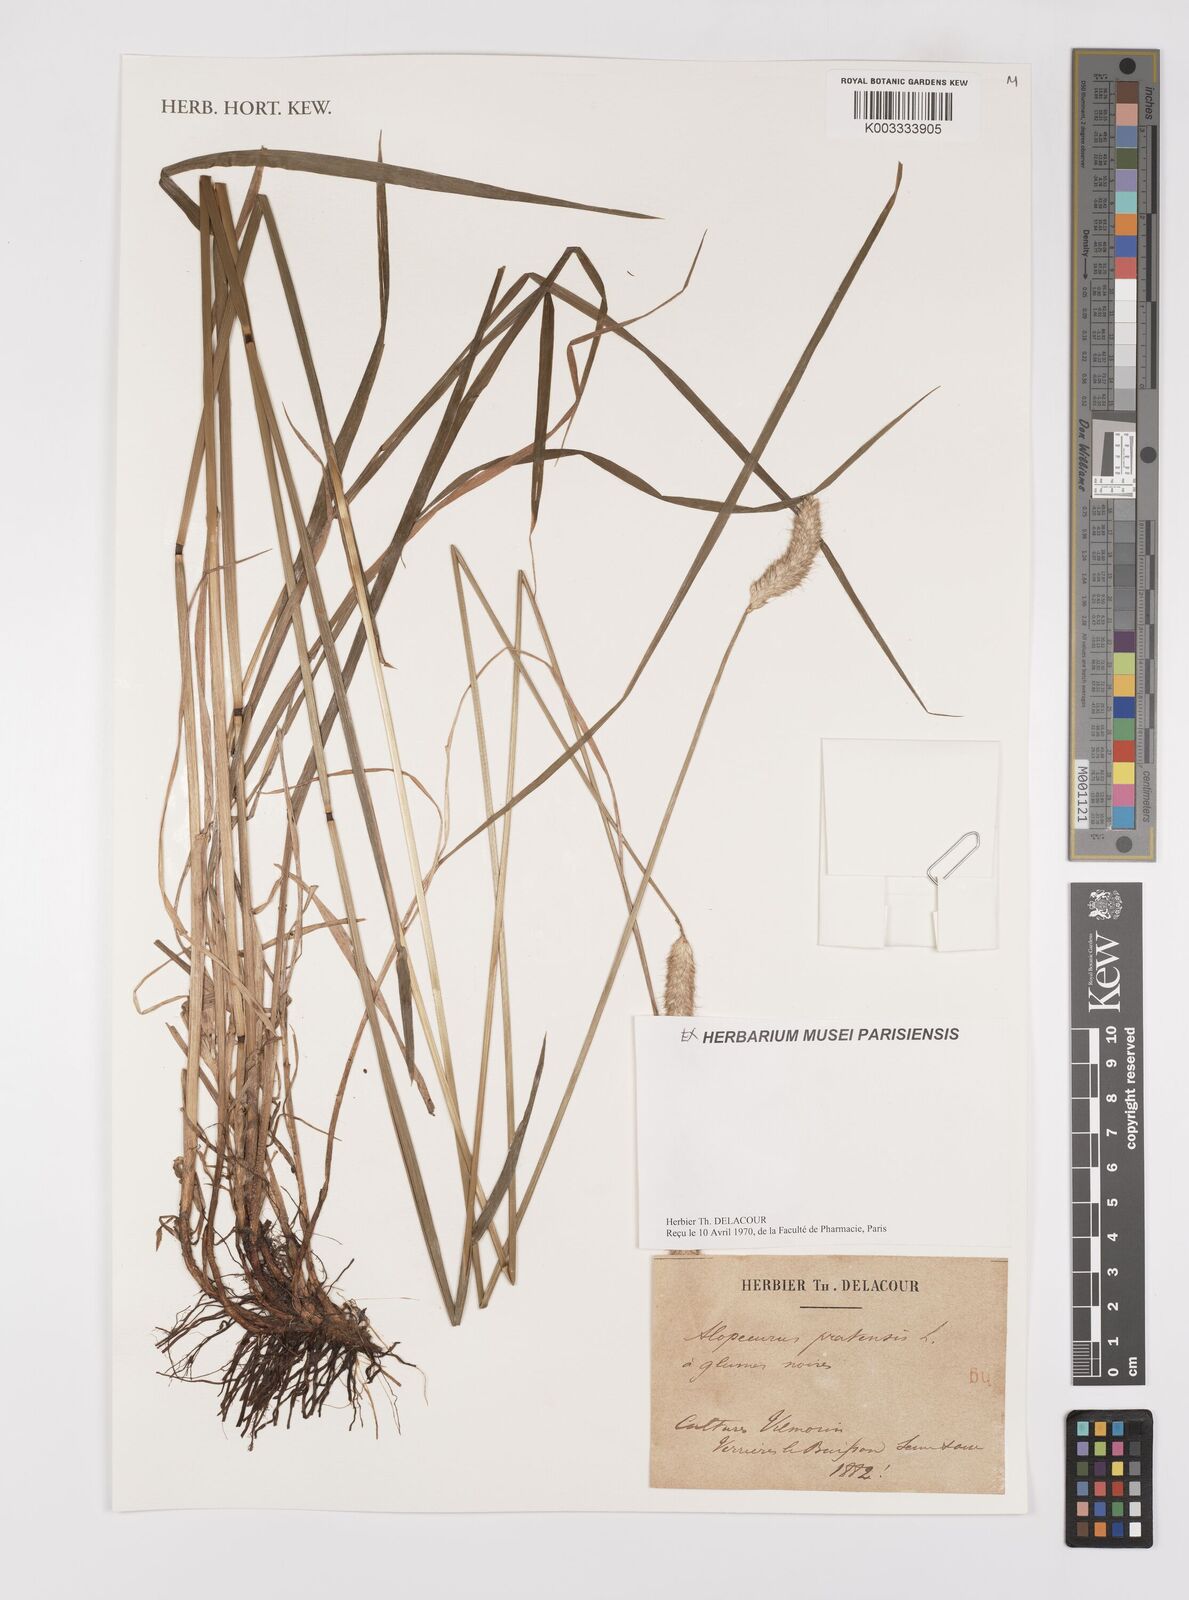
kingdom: Plantae
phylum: Tracheophyta
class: Liliopsida
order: Poales
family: Poaceae
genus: Alopecurus
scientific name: Alopecurus pratensis
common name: Meadow foxtail
